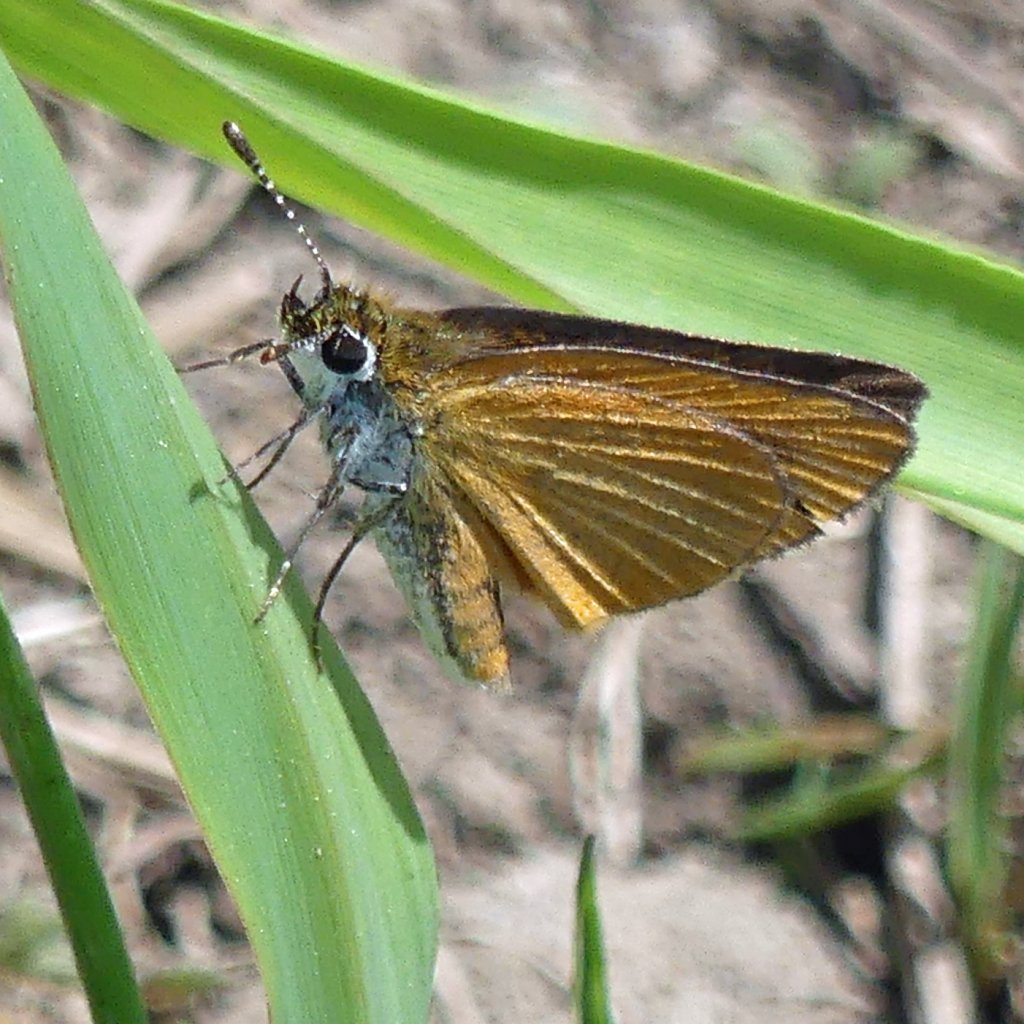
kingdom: Animalia
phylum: Arthropoda
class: Insecta
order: Lepidoptera
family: Hesperiidae
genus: Ancyloxypha
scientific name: Ancyloxypha numitor
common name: Least Skipper
